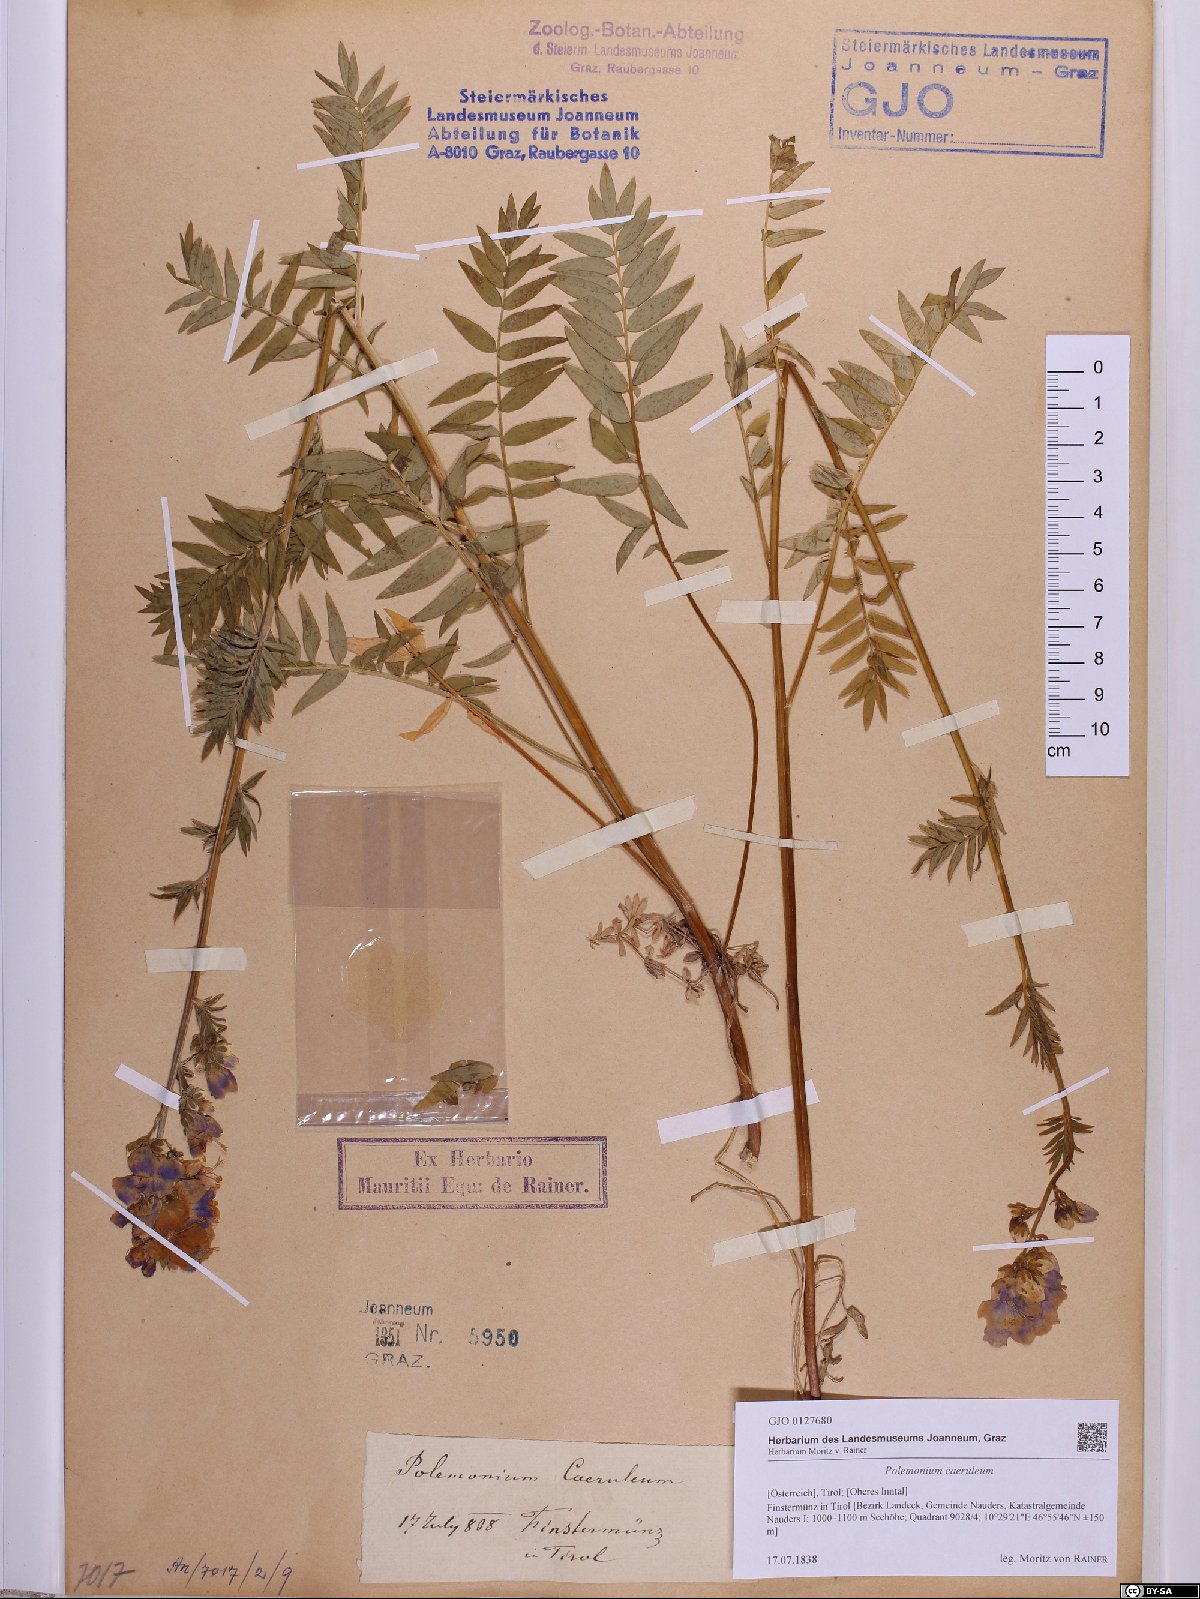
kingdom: Plantae
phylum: Tracheophyta
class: Magnoliopsida
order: Ericales
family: Polemoniaceae
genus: Polemonium
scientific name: Polemonium caeruleum
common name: Jacob's-ladder
